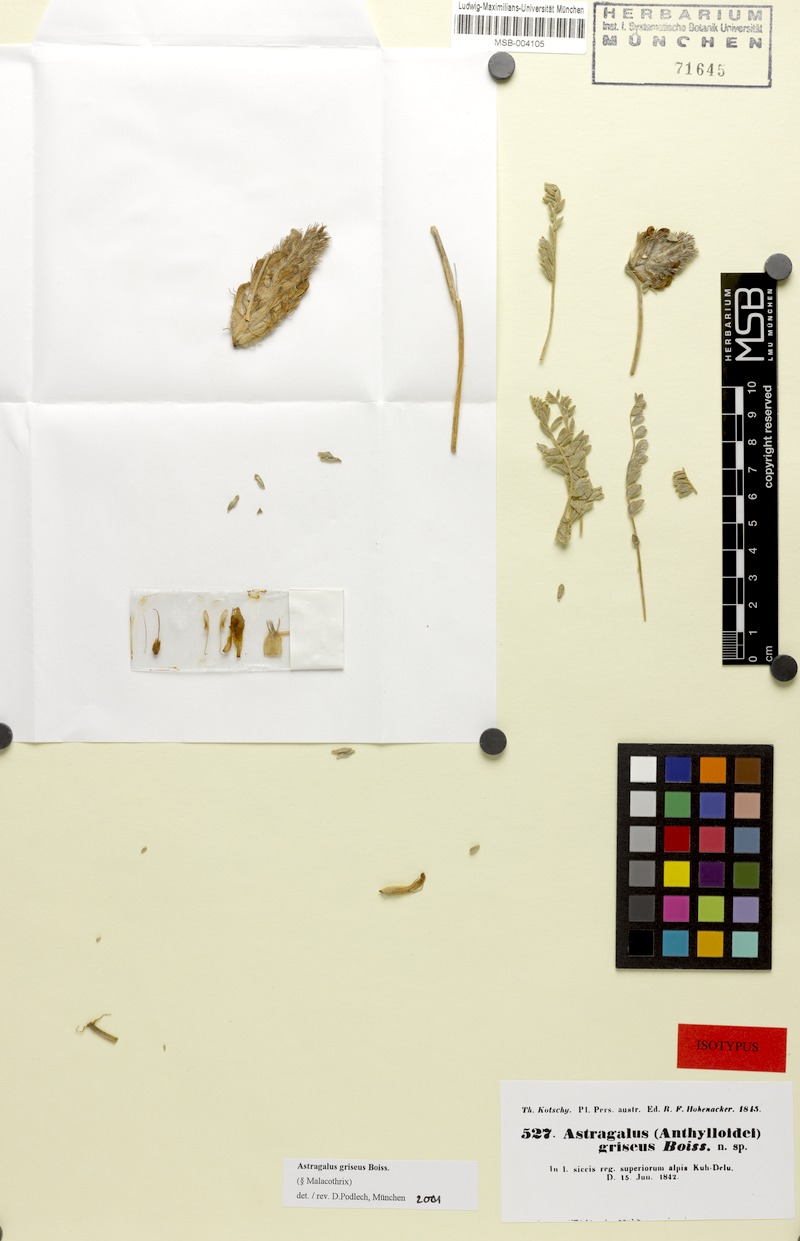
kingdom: Plantae
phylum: Tracheophyta
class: Magnoliopsida
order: Fabales
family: Fabaceae
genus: Astragalus
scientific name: Astragalus griseus
